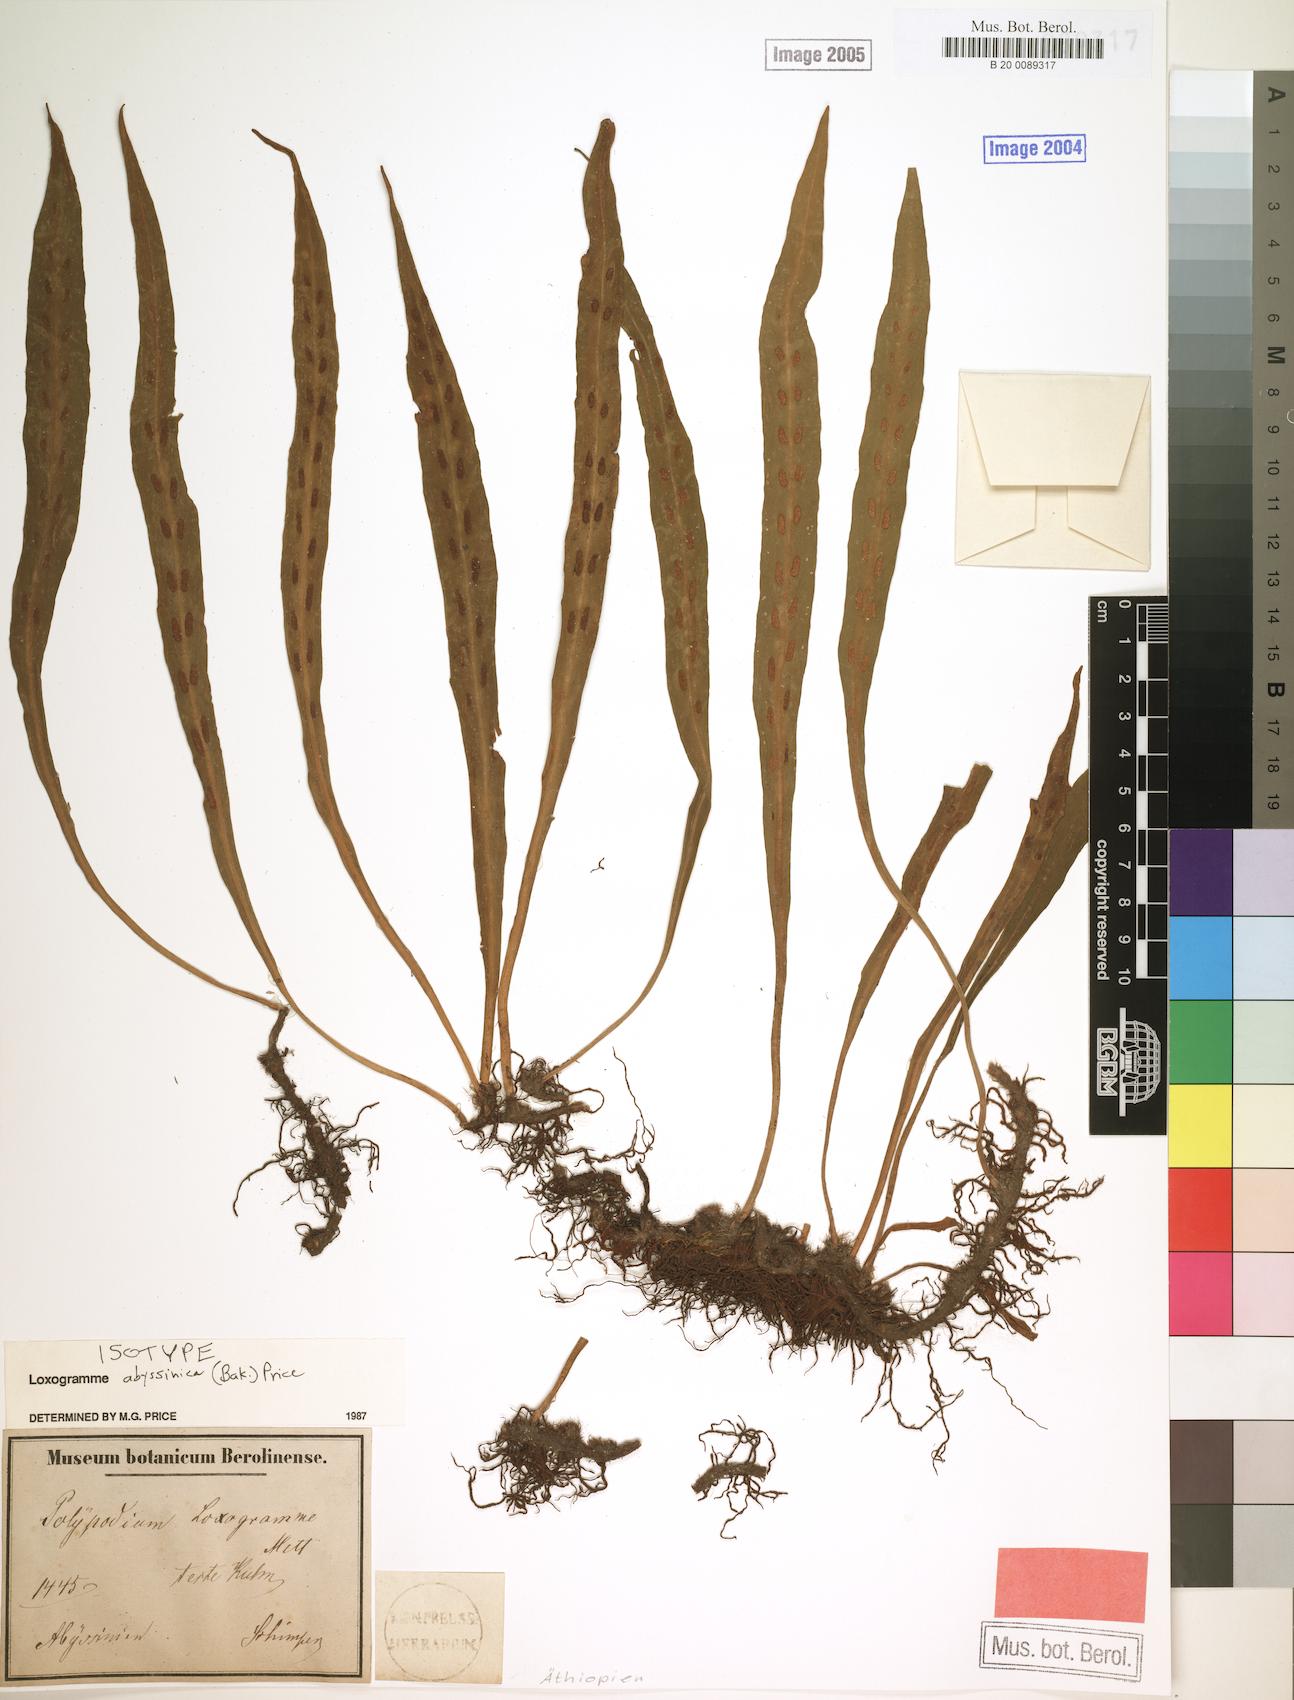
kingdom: Plantae
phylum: Tracheophyta
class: Polypodiopsida
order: Polypodiales
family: Polypodiaceae
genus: Loxogramme
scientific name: Loxogramme abyssinica
